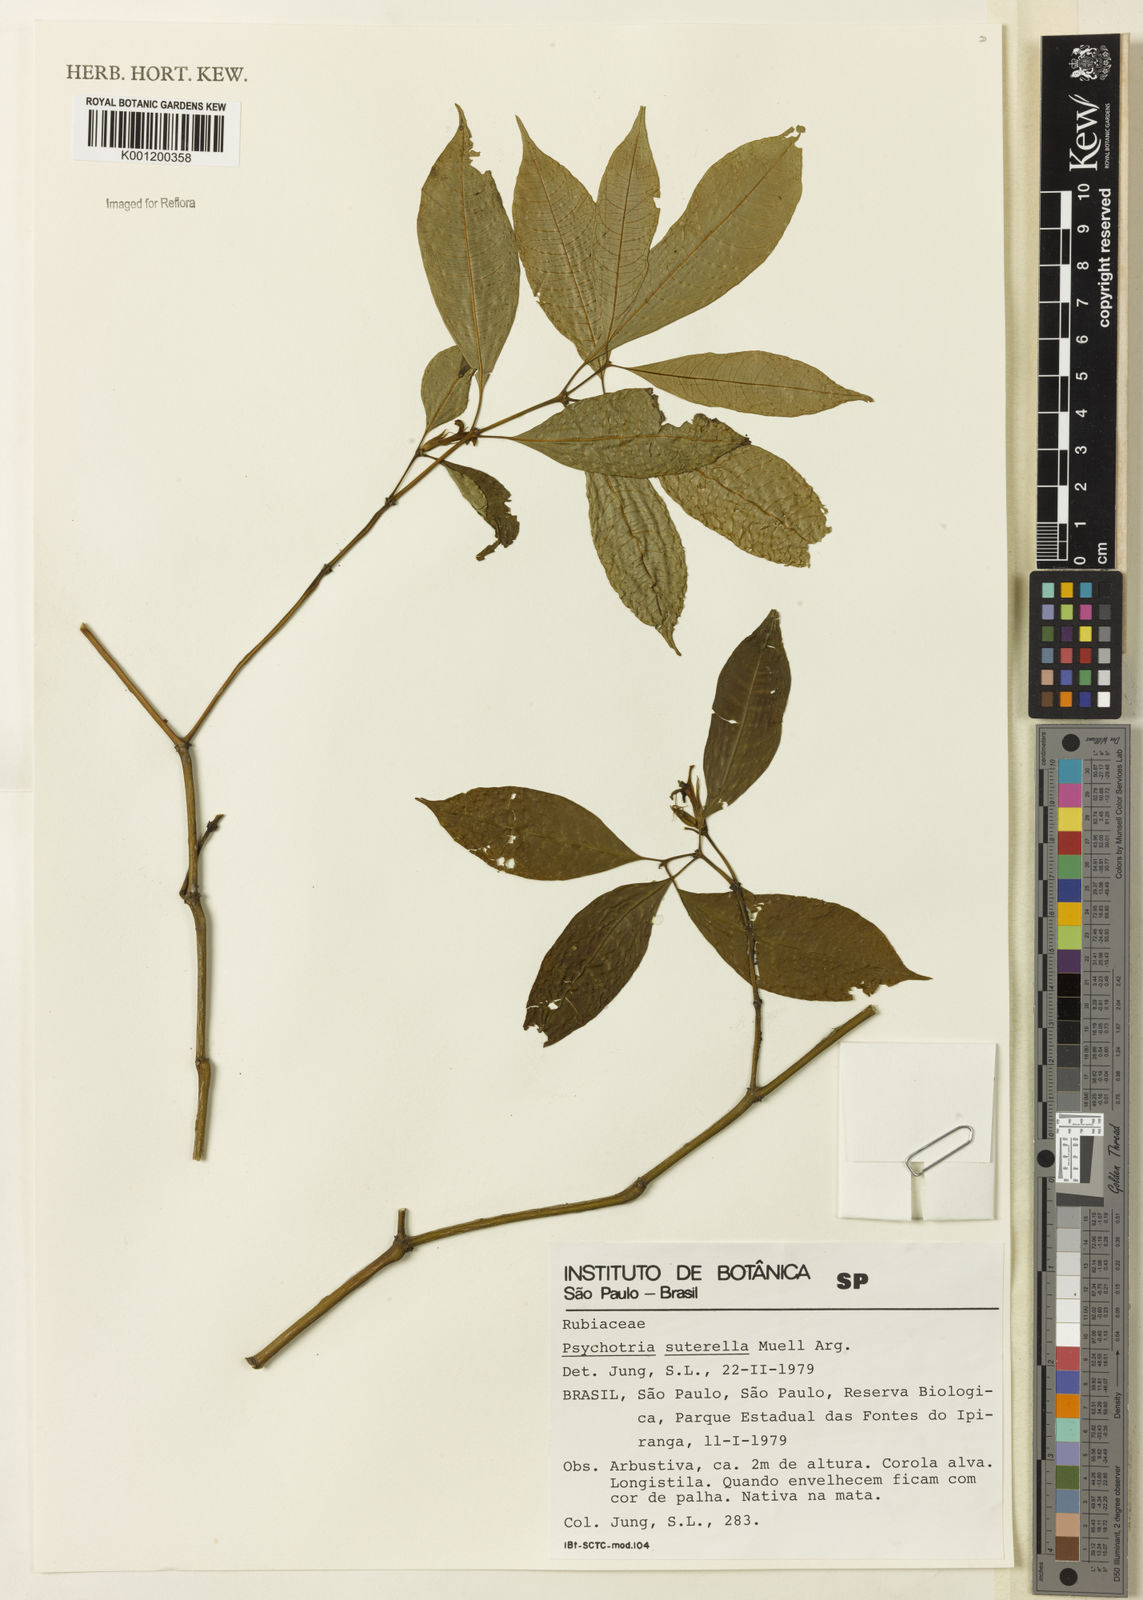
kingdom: Plantae
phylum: Tracheophyta
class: Magnoliopsida
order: Gentianales
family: Rubiaceae
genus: Psychotria
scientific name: Psychotria
